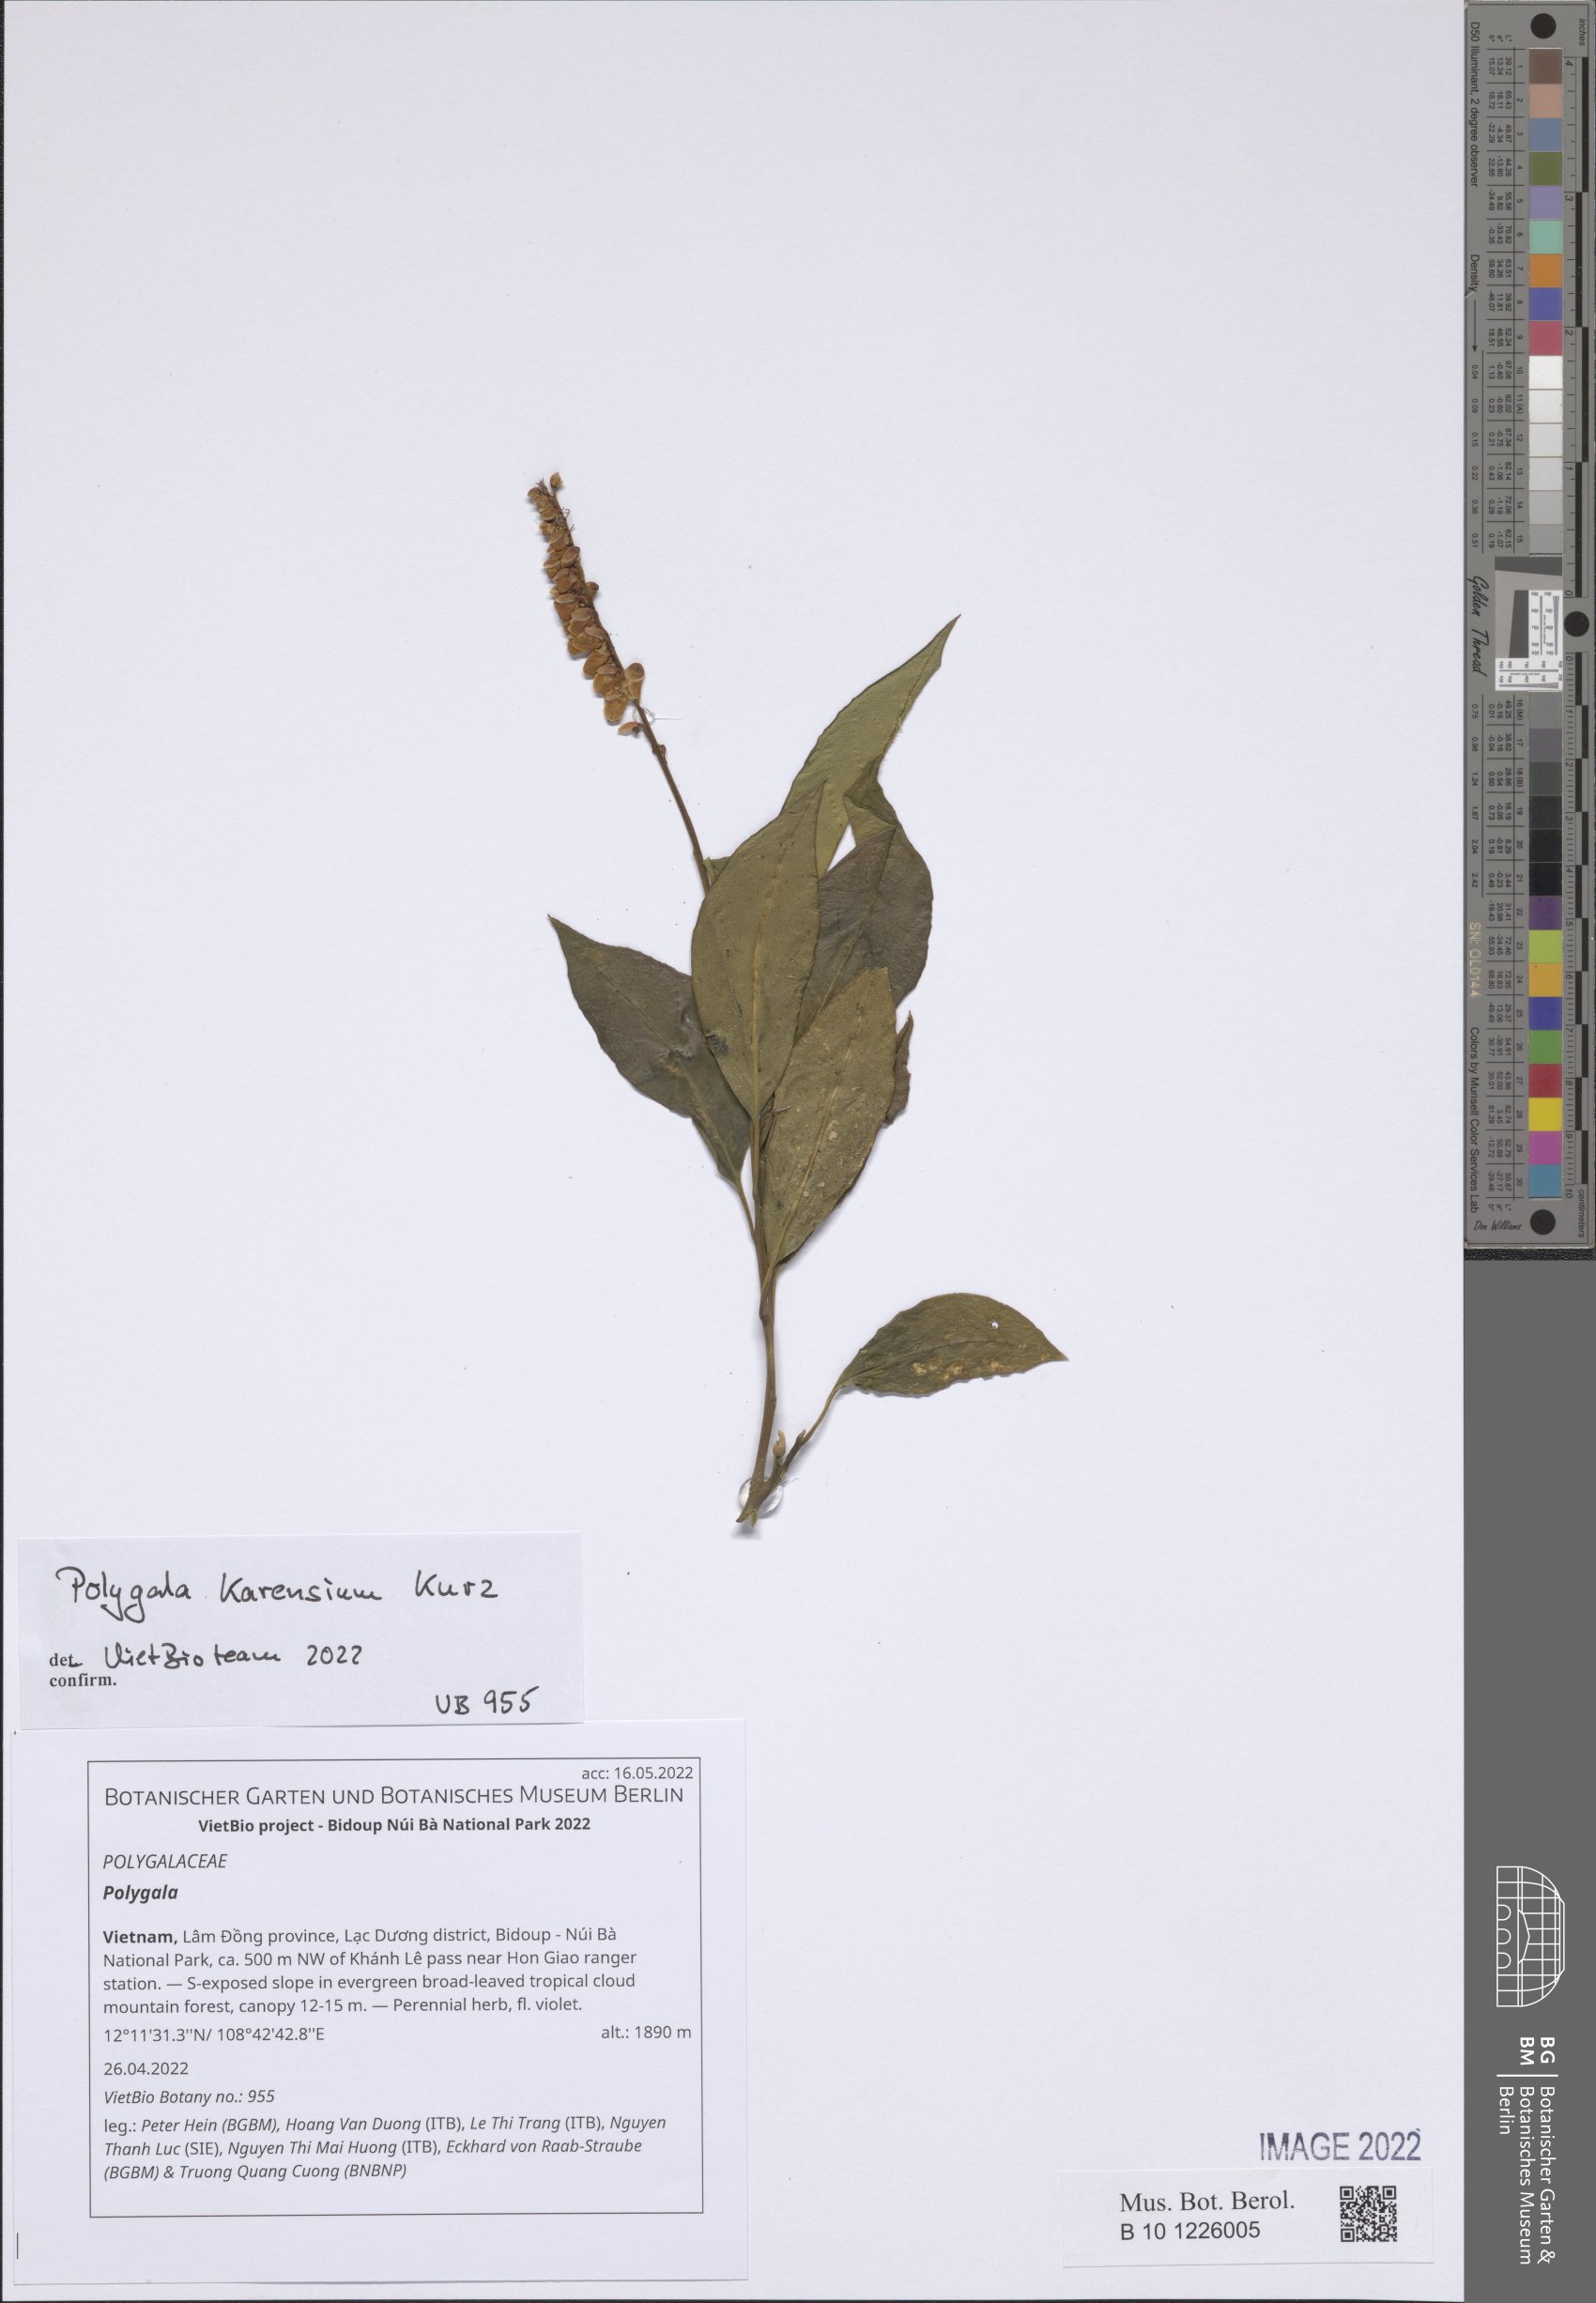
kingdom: Plantae
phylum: Tracheophyta
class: Magnoliopsida
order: Fabales
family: Polygalaceae
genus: Polygala
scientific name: Polygala
